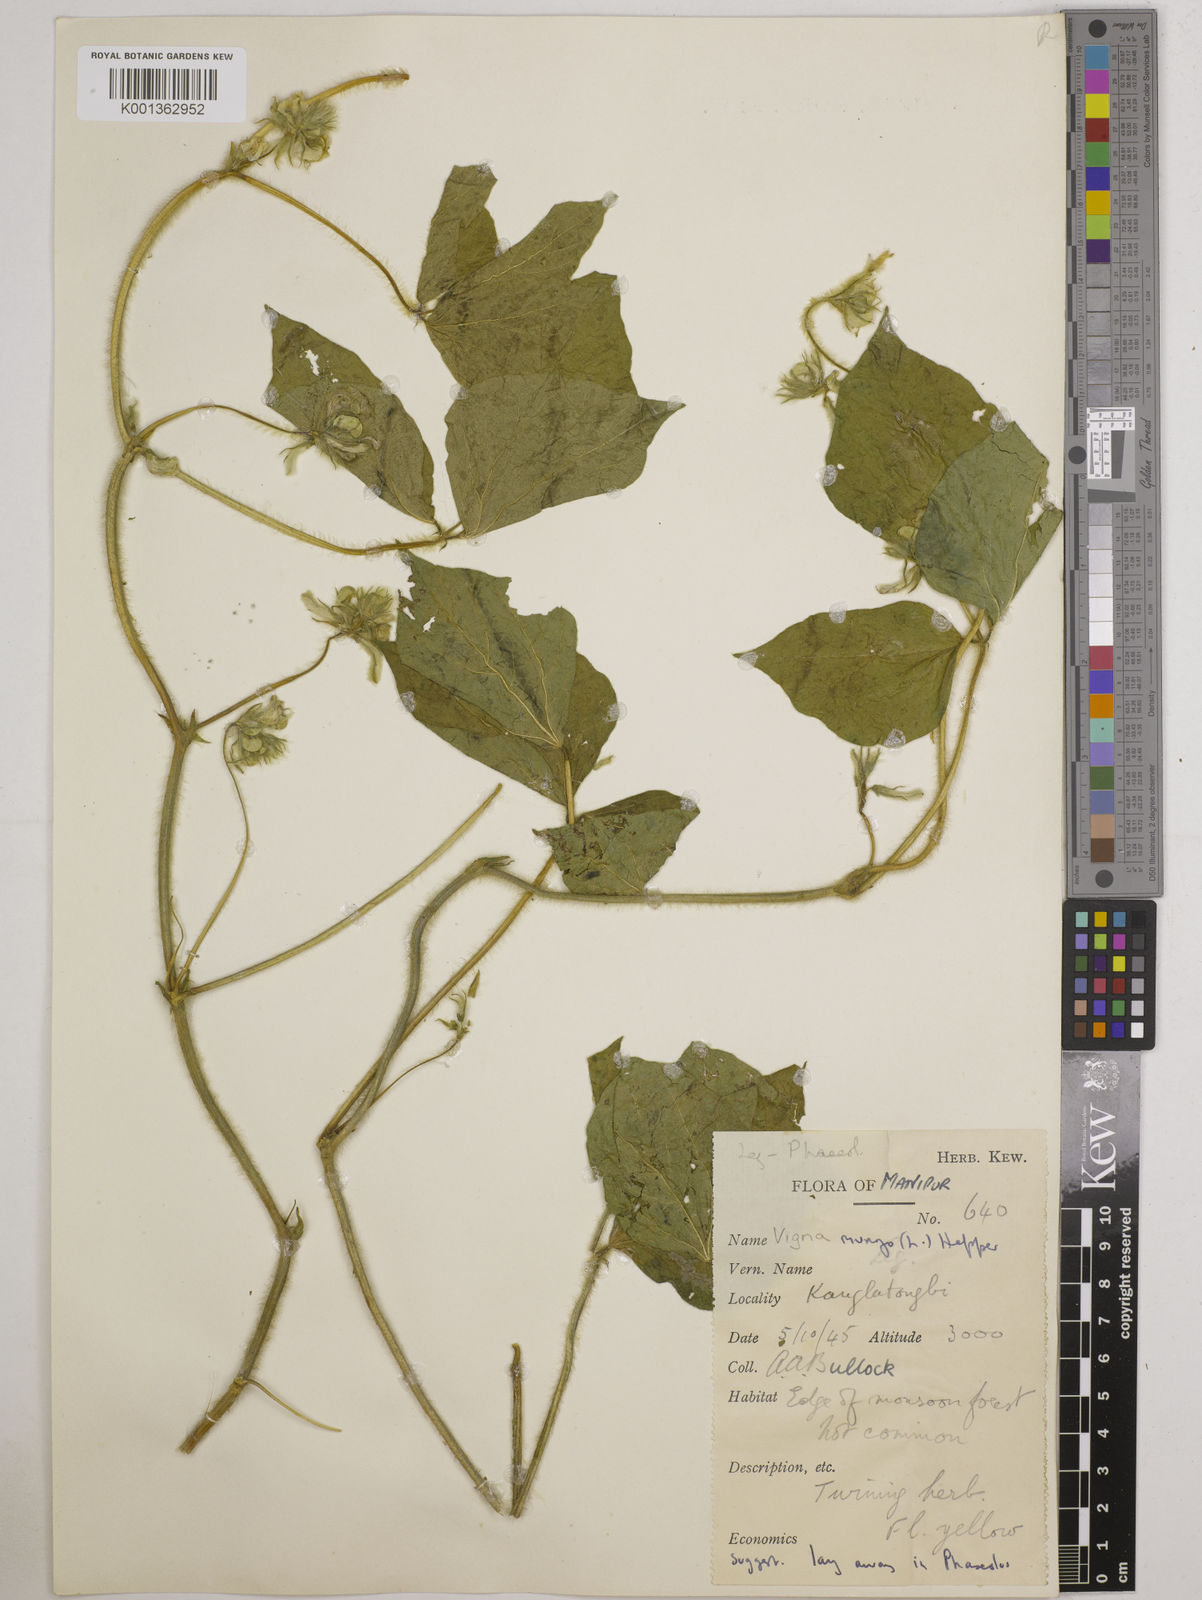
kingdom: Plantae
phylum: Tracheophyta
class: Magnoliopsida
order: Fabales
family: Fabaceae
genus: Vigna
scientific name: Vigna mungo
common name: Black gram
